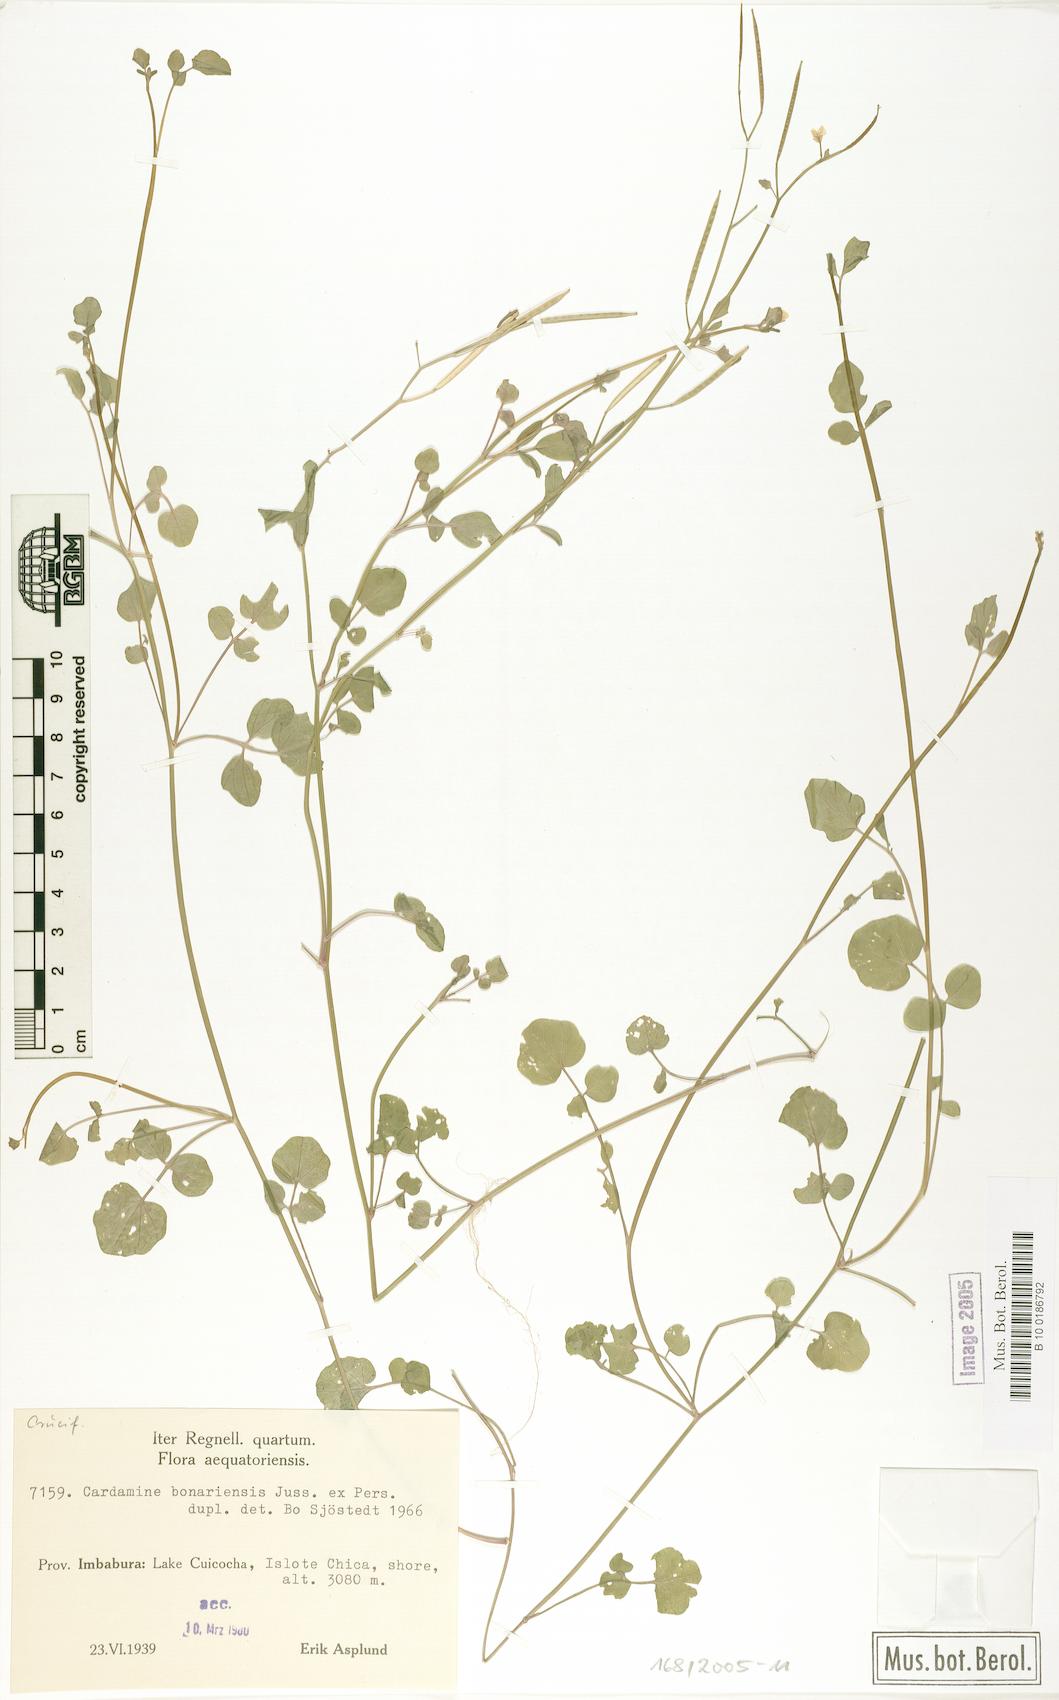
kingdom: Plantae
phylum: Tracheophyta
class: Magnoliopsida
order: Brassicales
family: Brassicaceae
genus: Cardamine
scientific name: Cardamine bonariensis
